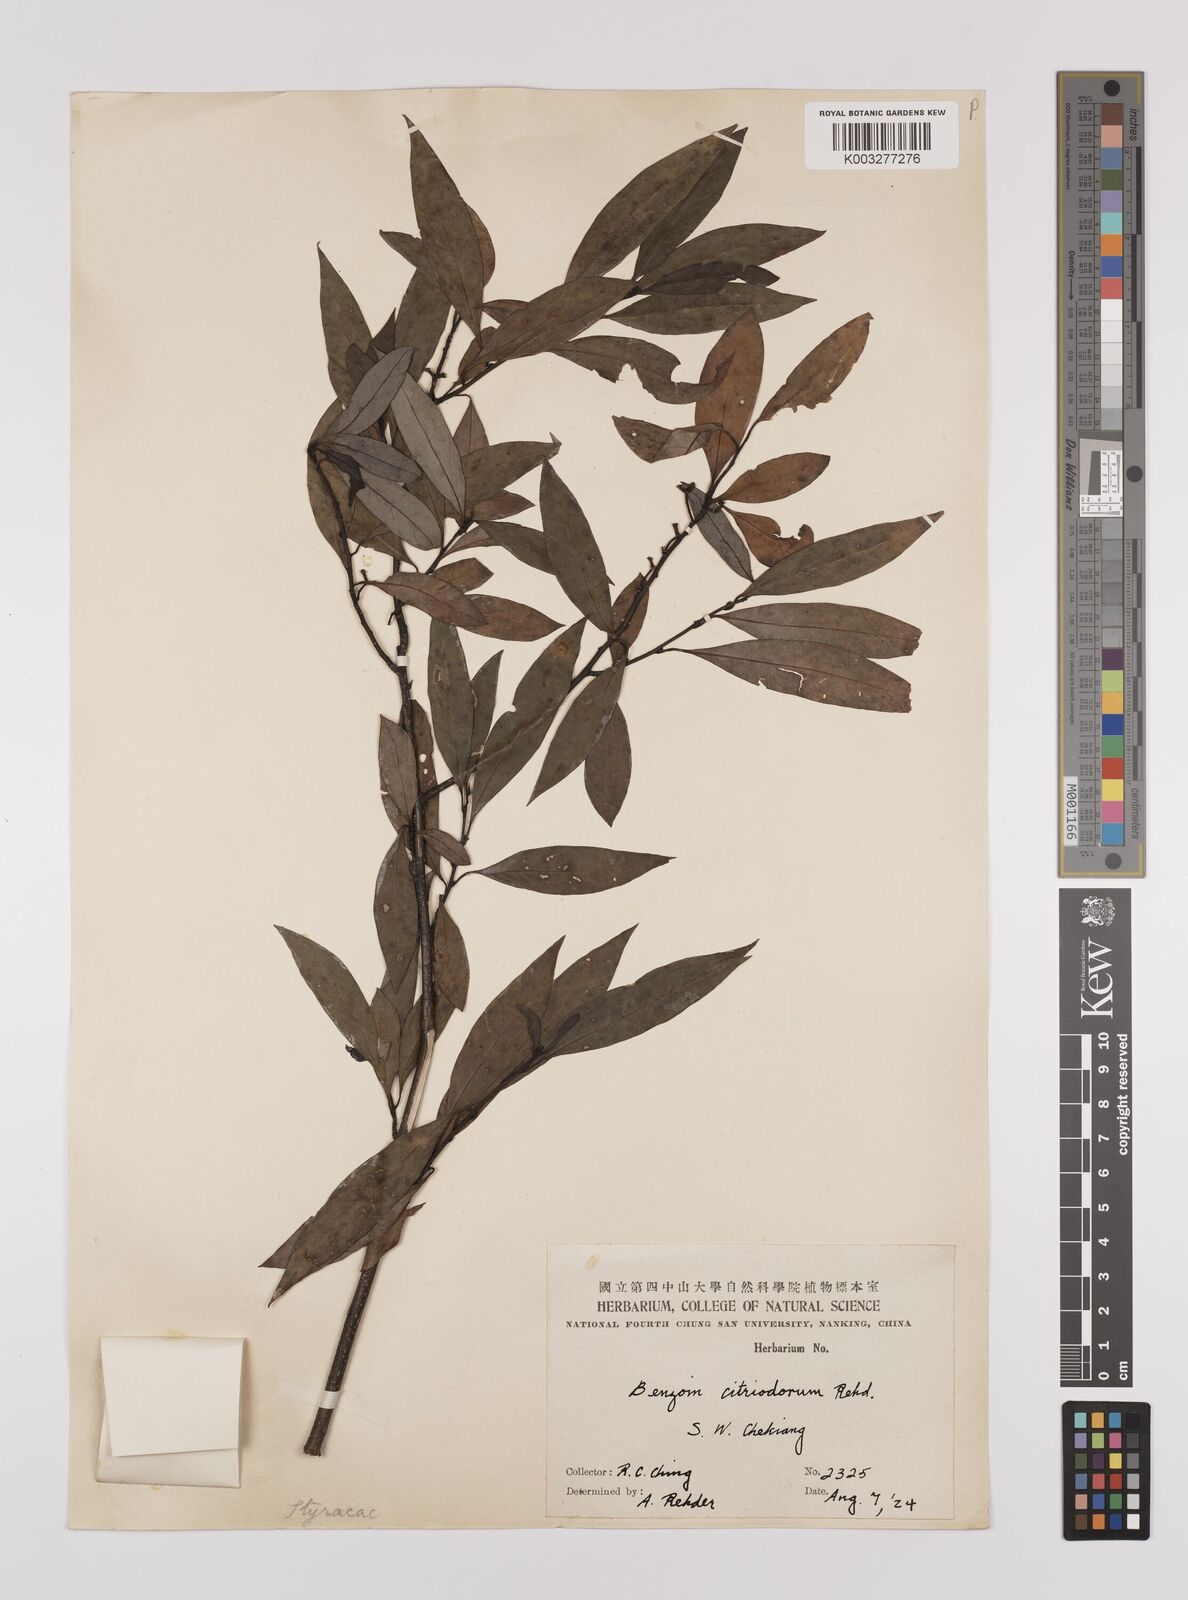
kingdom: Plantae
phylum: Tracheophyta
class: Magnoliopsida
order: Laurales
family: Lauraceae
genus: Litsea
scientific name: Litsea cubeba
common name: Mountain-pepper
